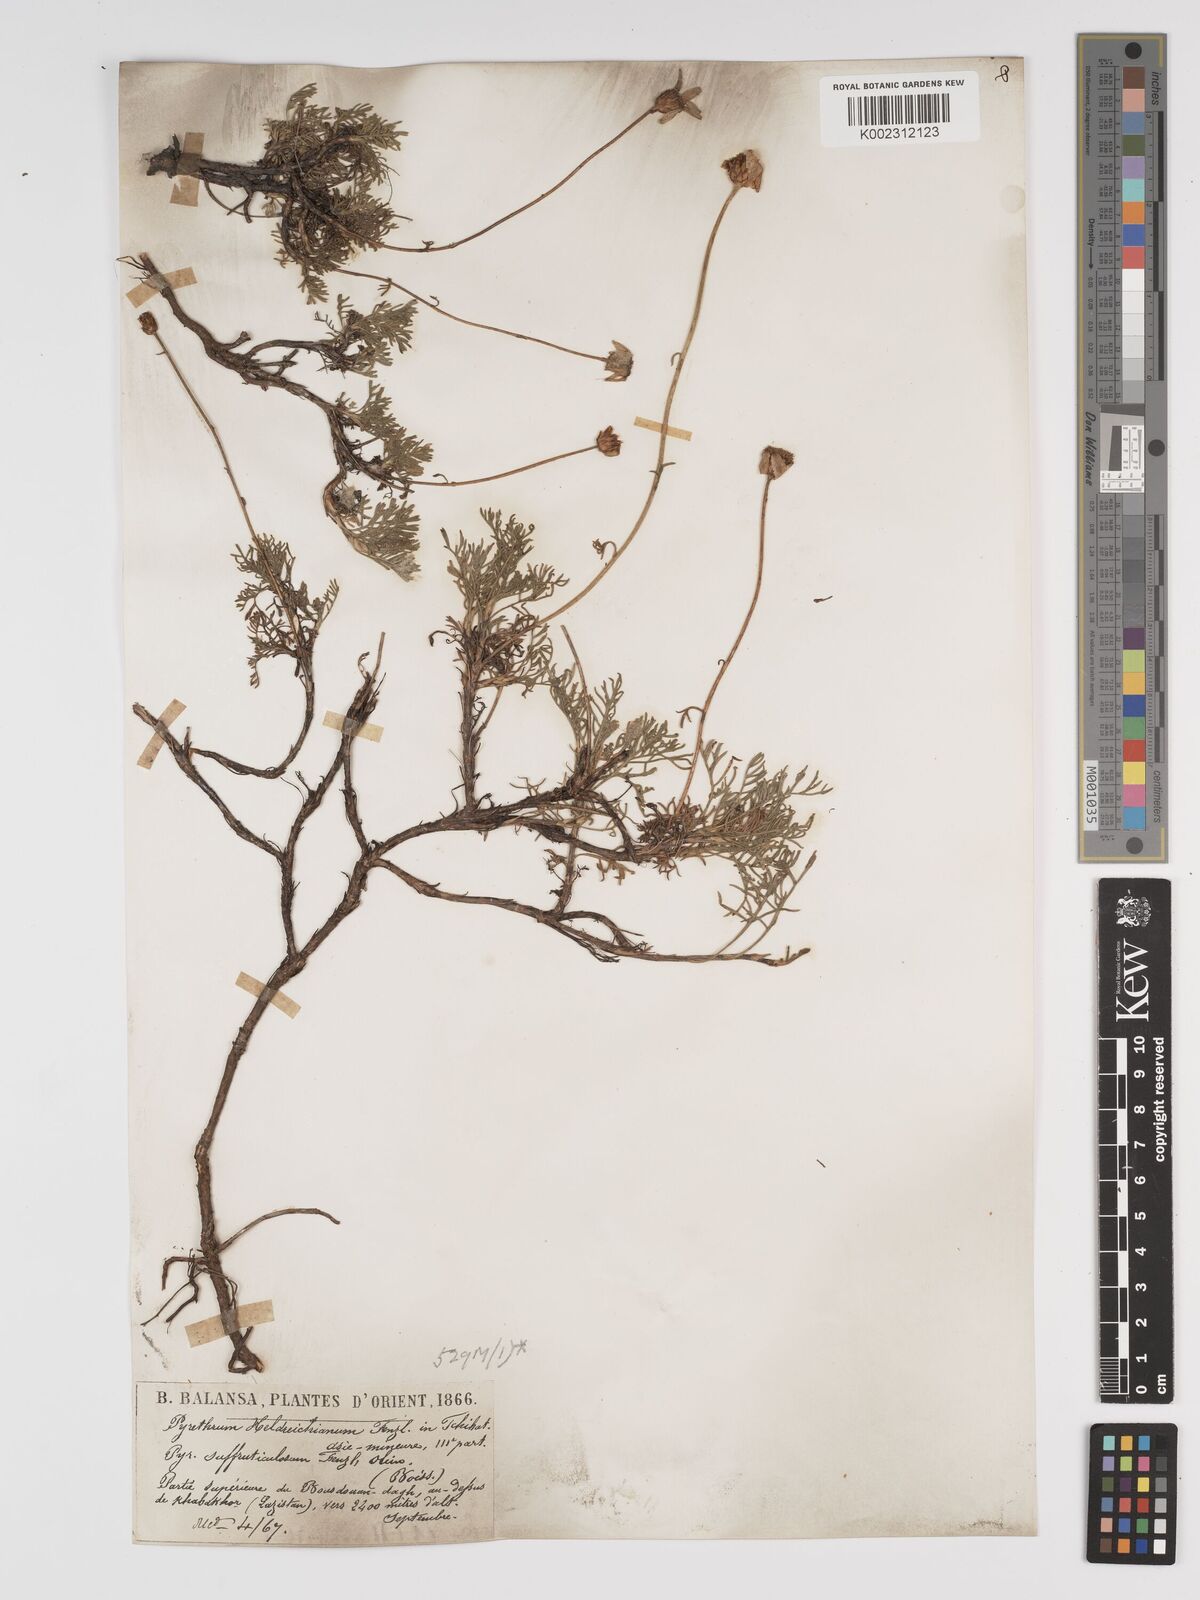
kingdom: Plantae
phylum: Tracheophyta
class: Magnoliopsida
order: Asterales
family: Asteraceae
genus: Ajania
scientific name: Ajania fruticulosa
